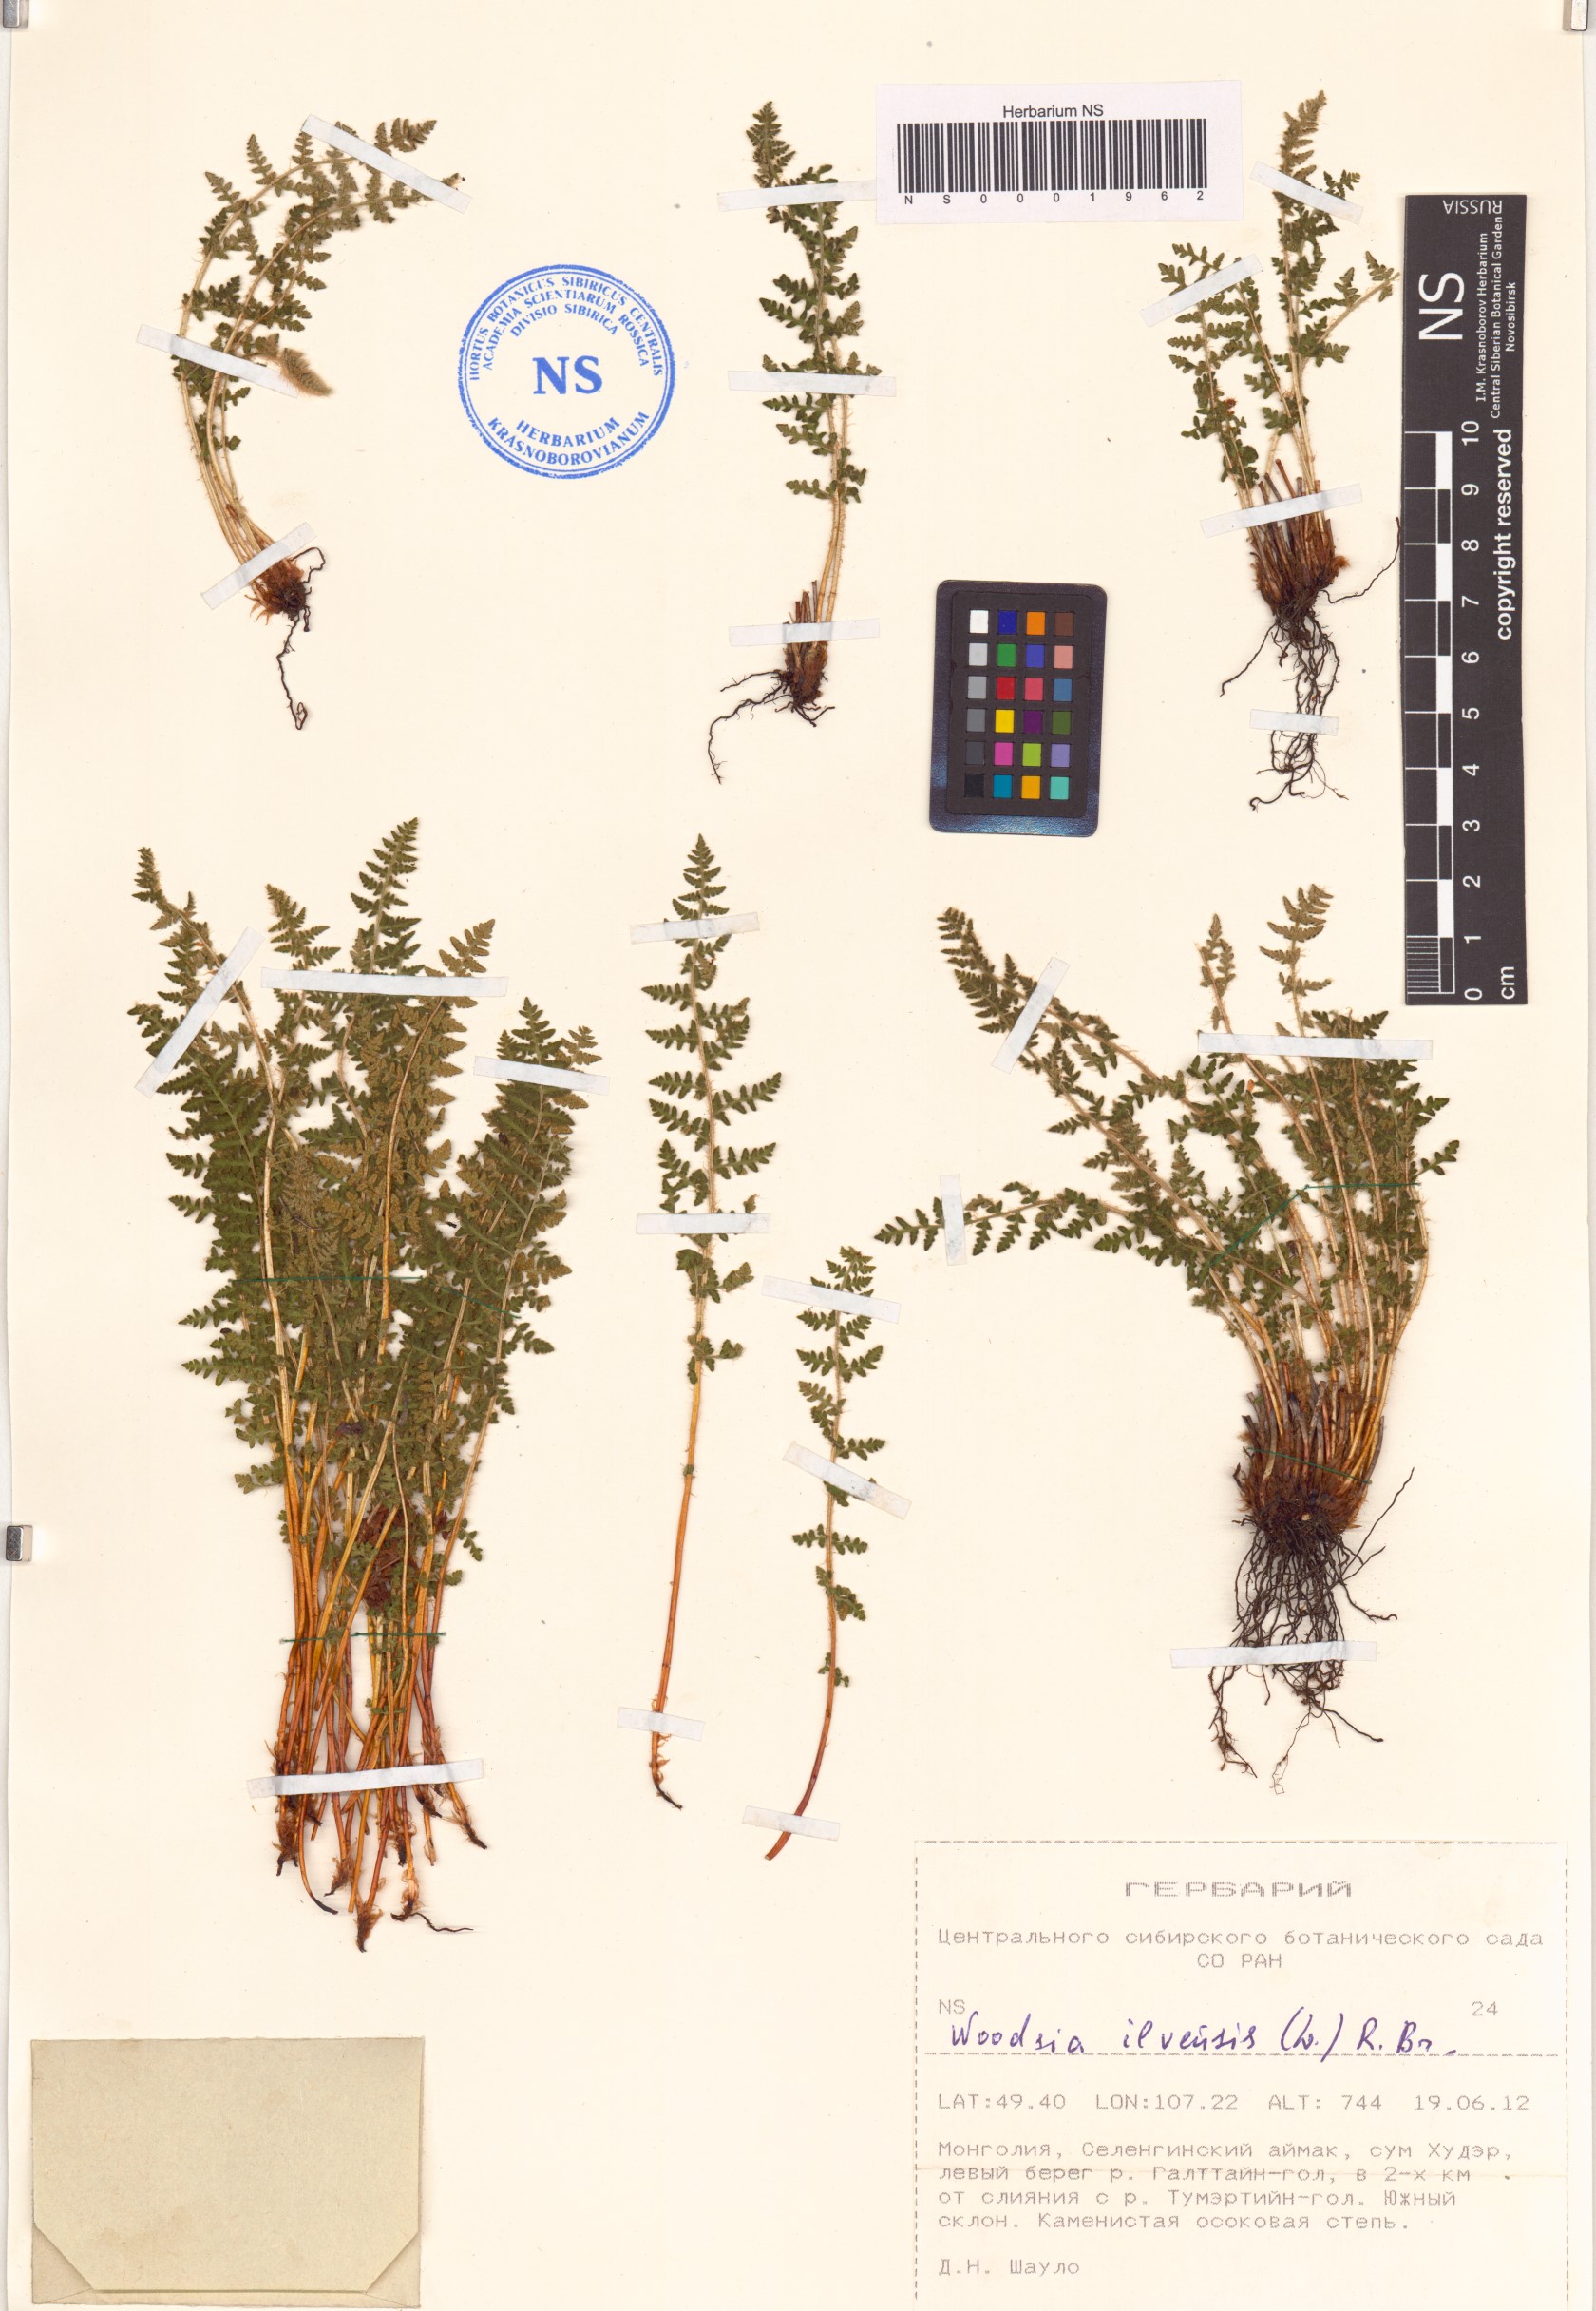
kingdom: Plantae
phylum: Tracheophyta
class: Polypodiopsida
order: Polypodiales
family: Woodsiaceae
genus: Woodsia
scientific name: Woodsia ilvensis
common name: Fragrant woodsia
